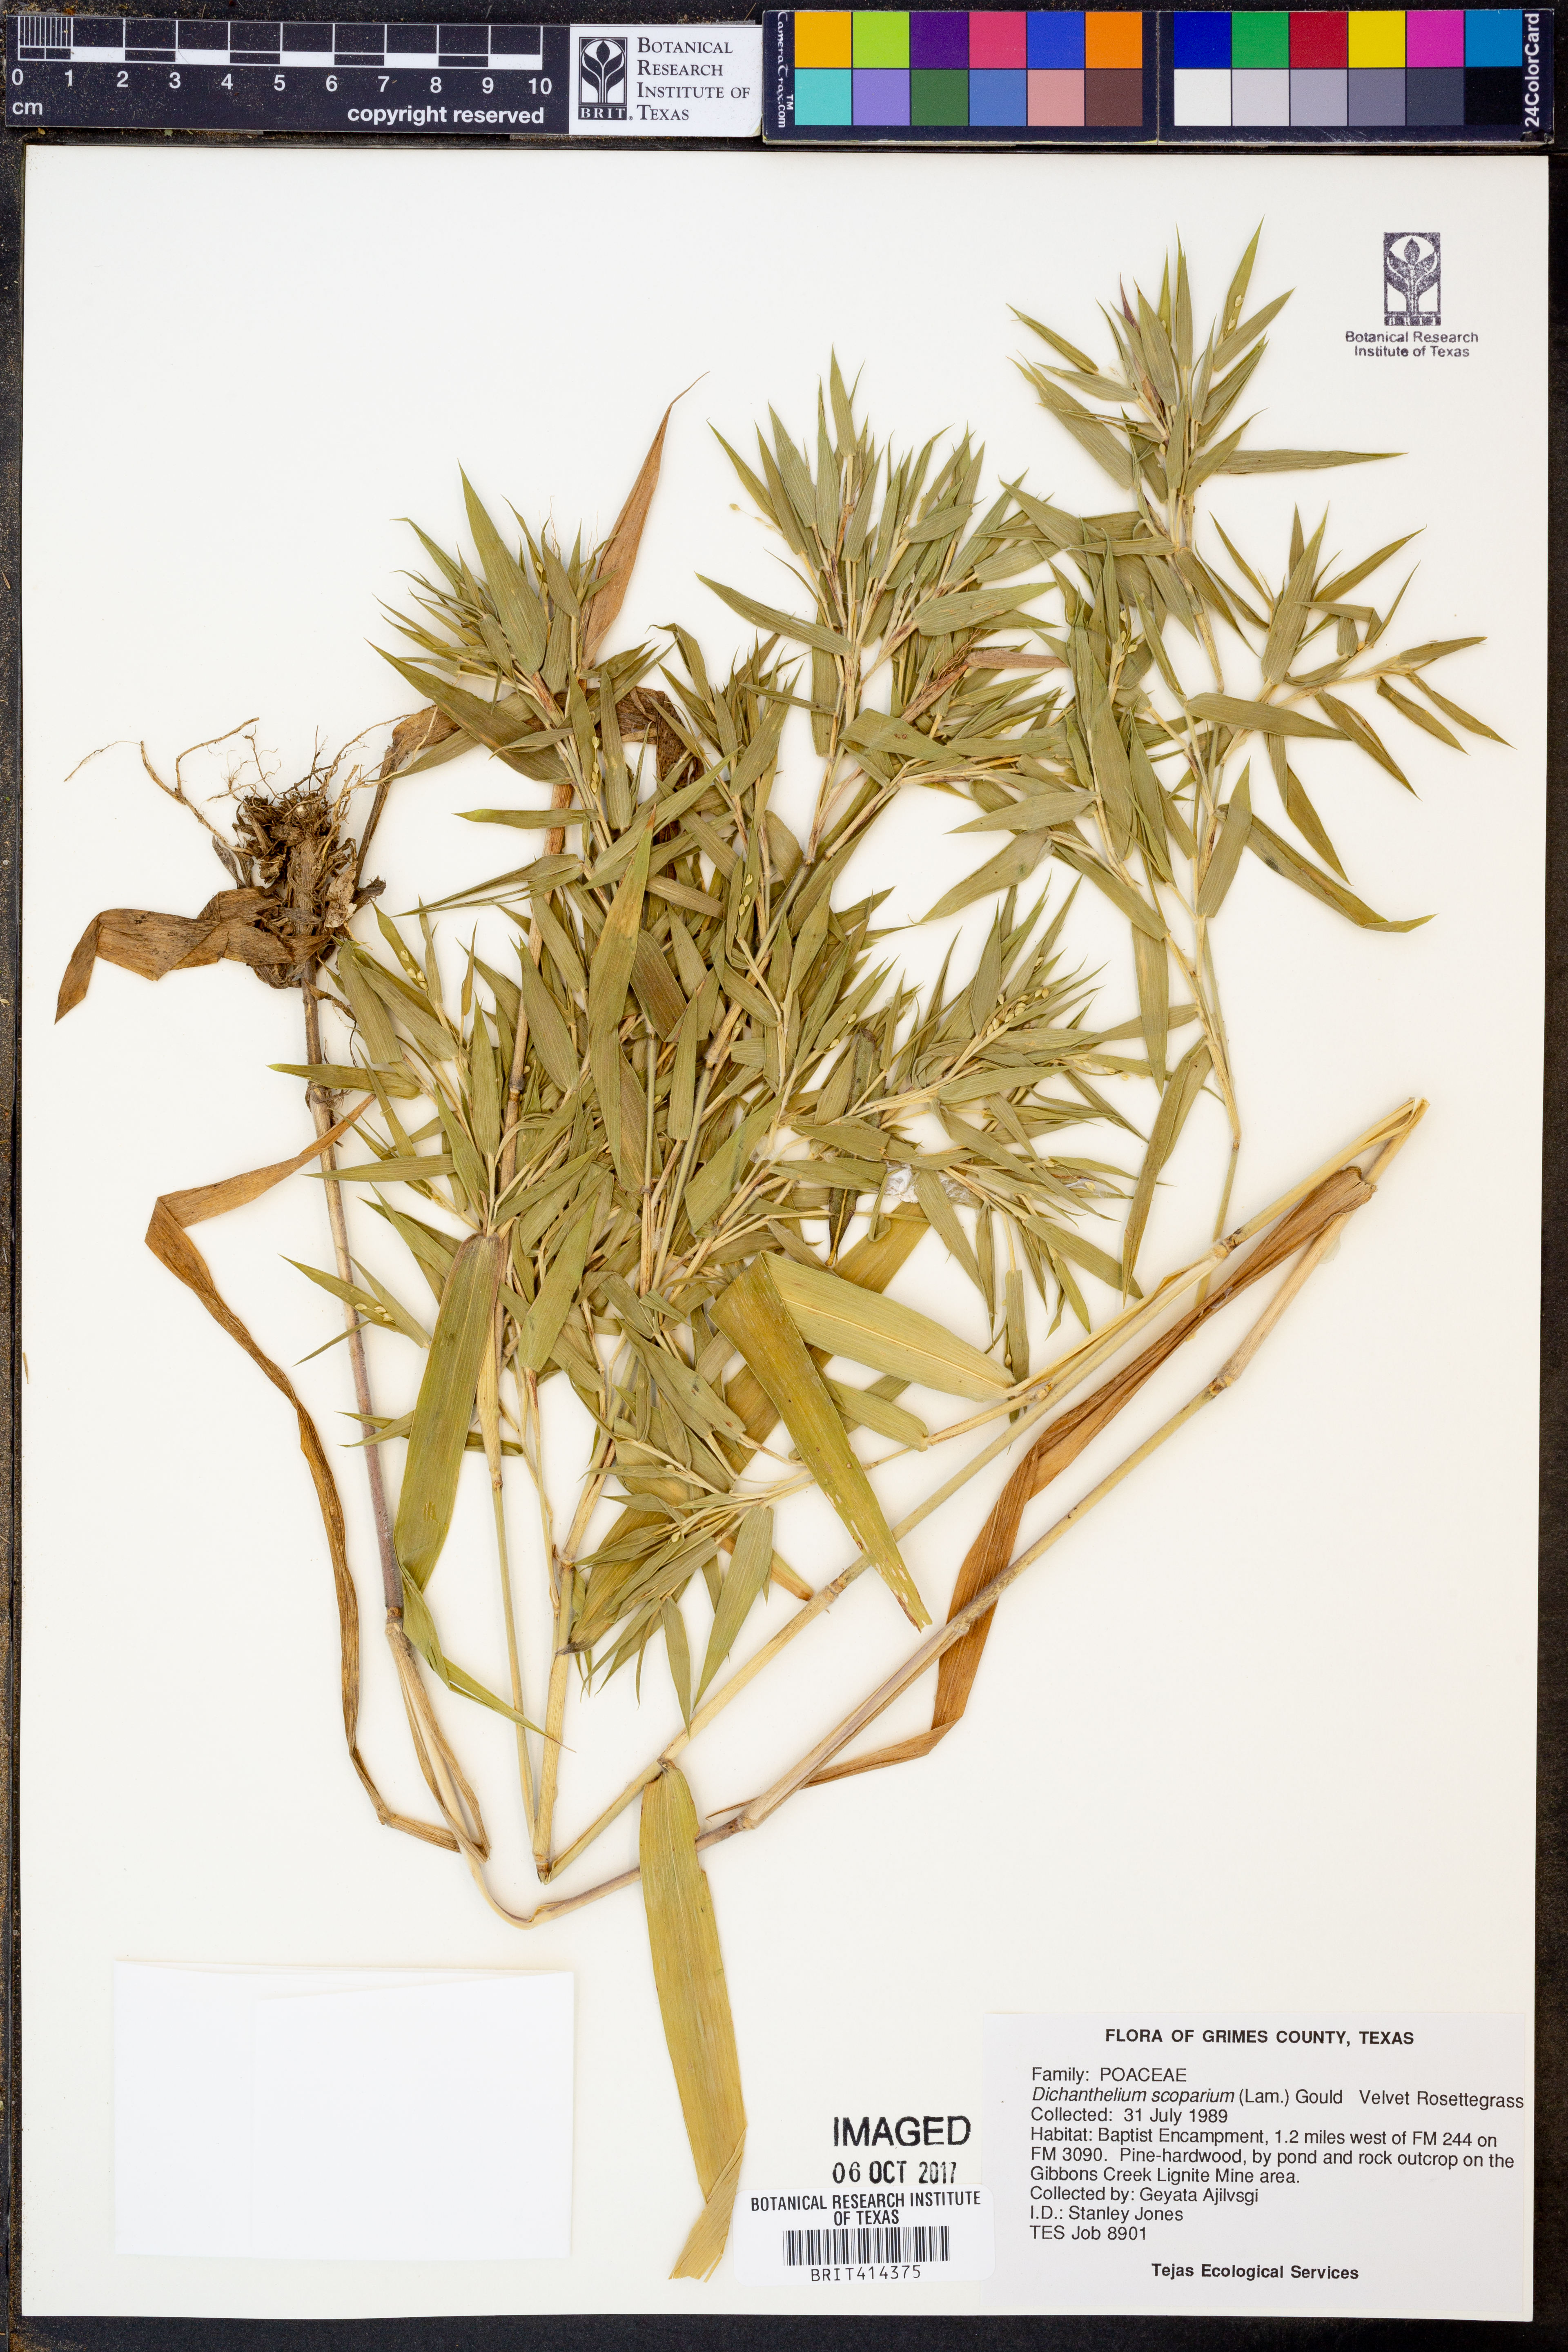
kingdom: Plantae
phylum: Tracheophyta
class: Liliopsida
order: Poales
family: Poaceae
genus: Dichanthelium
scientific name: Dichanthelium scoparium
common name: Velvety panic grass
